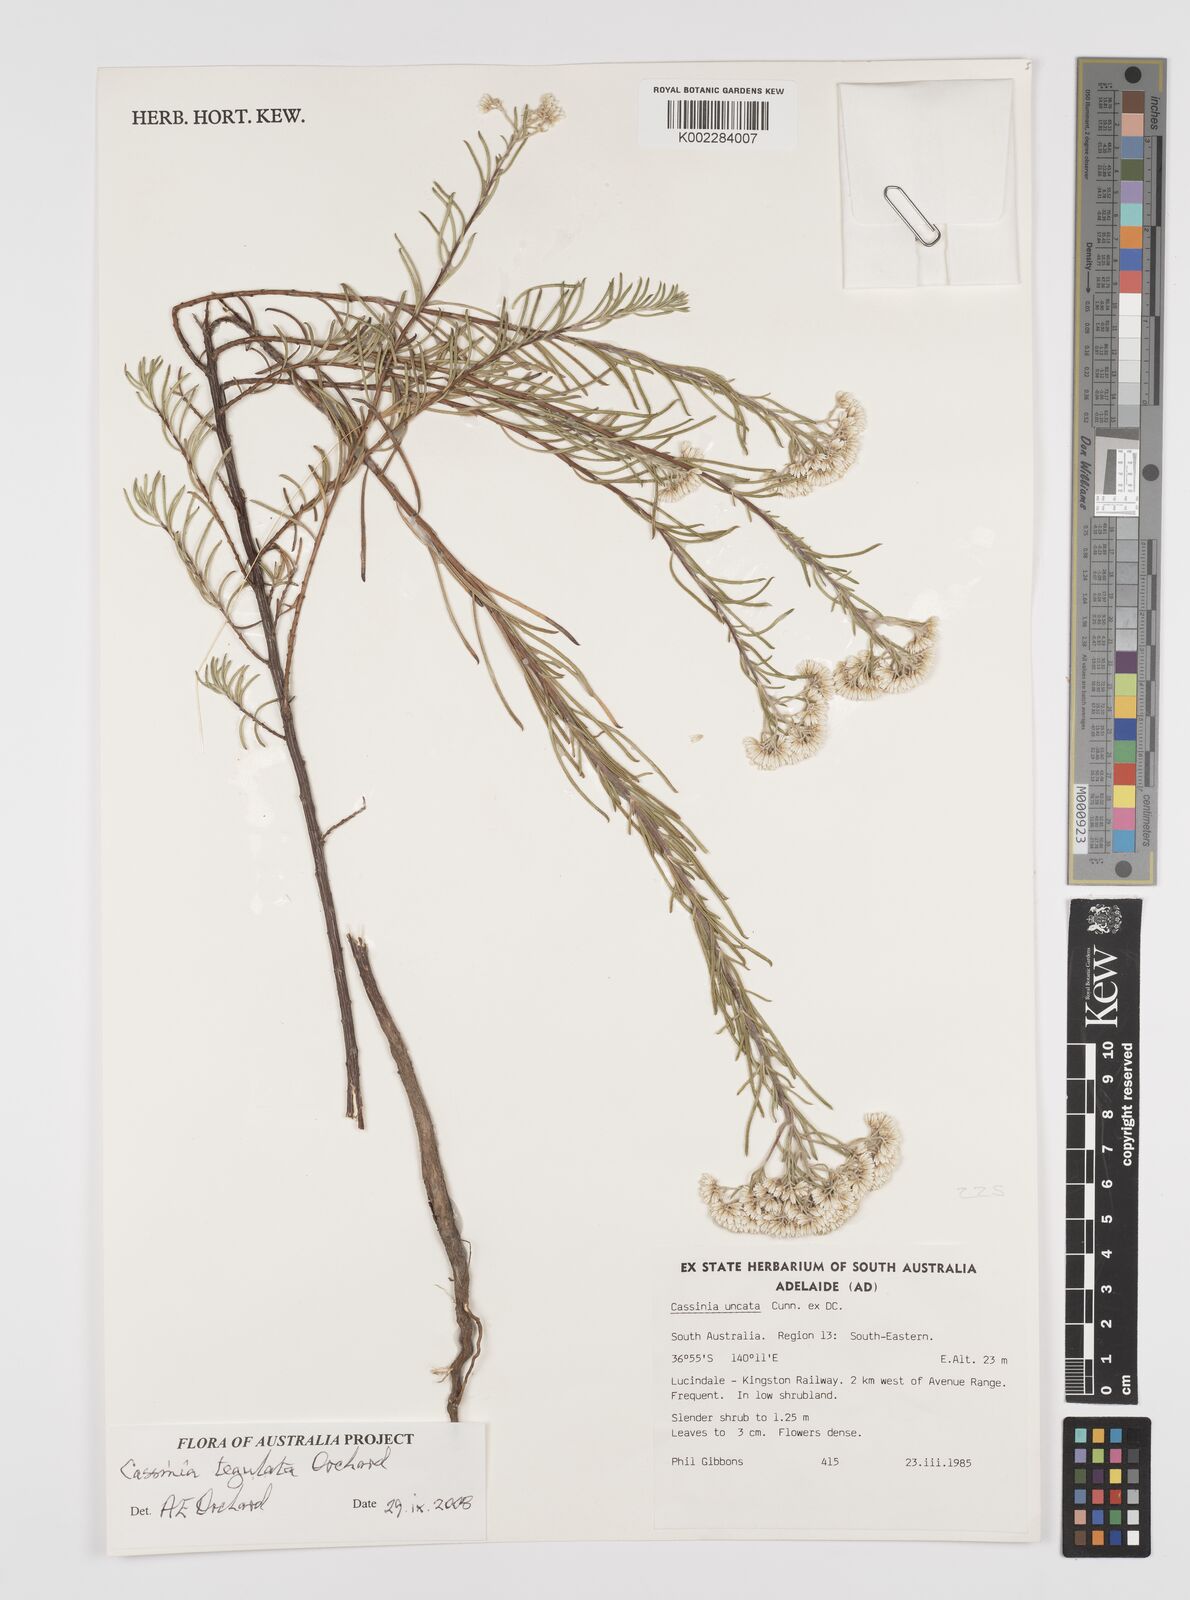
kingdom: Plantae
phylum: Tracheophyta
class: Magnoliopsida
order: Asterales
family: Asteraceae
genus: Cassinia
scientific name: Cassinia tegulata
